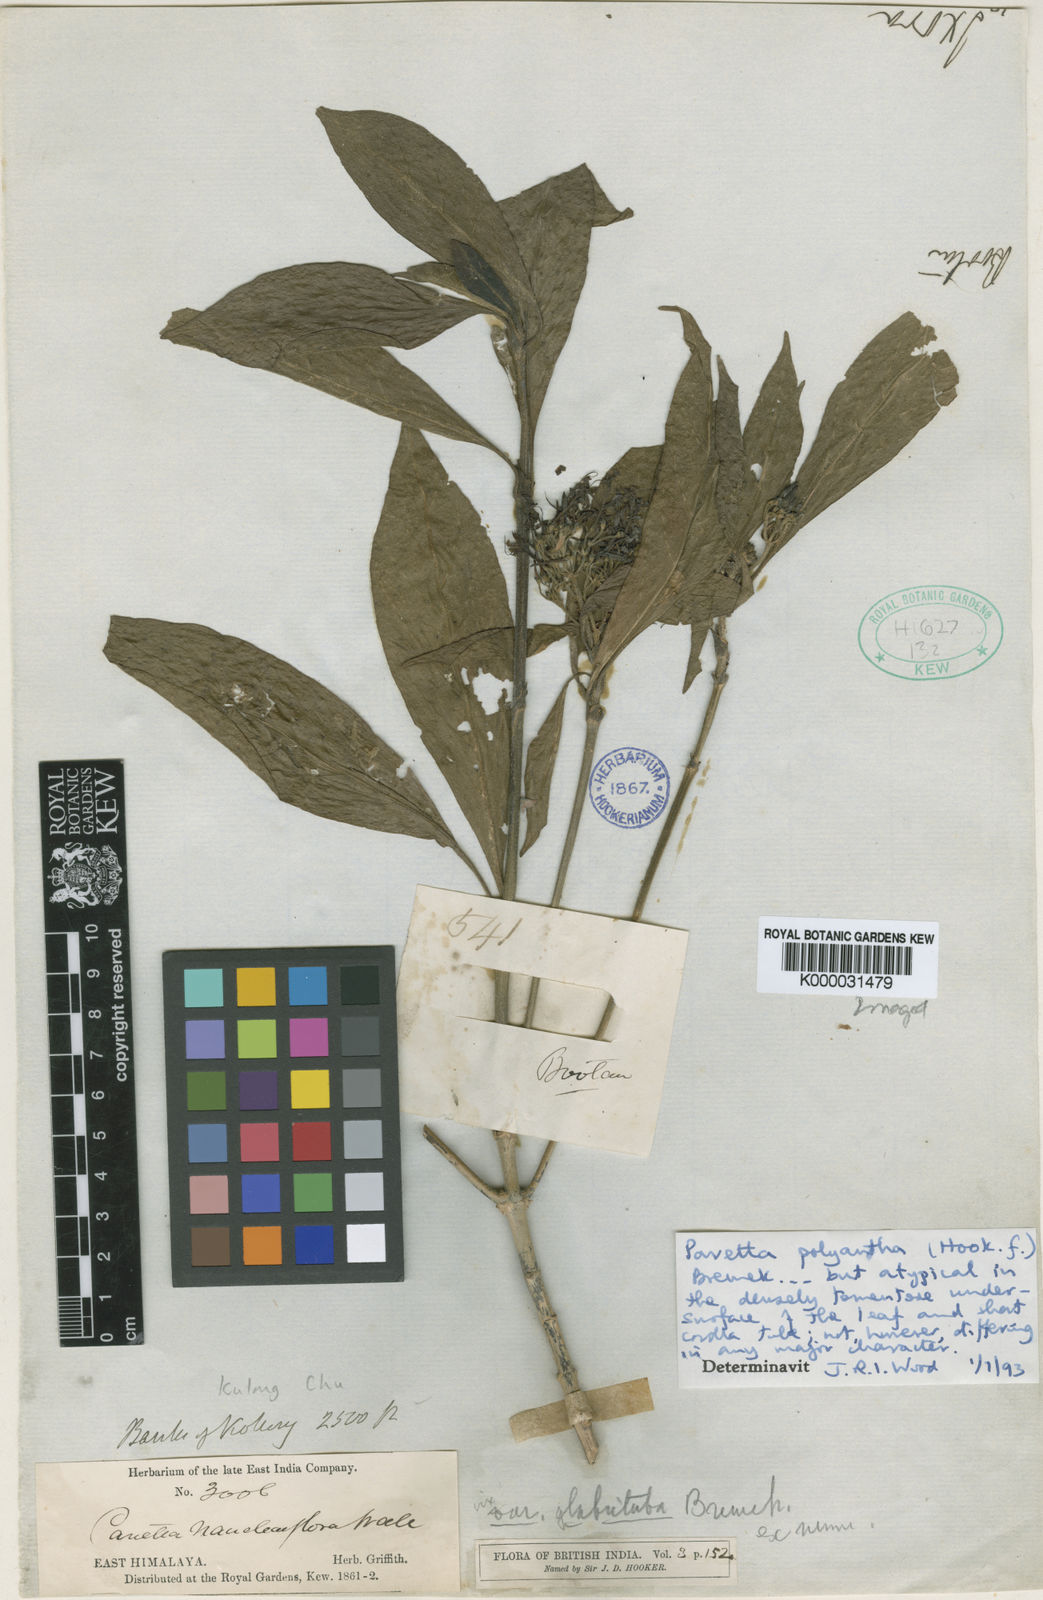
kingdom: Plantae
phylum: Tracheophyta
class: Magnoliopsida
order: Gentianales
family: Rubiaceae
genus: Pavetta
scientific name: Pavetta tomentosa
